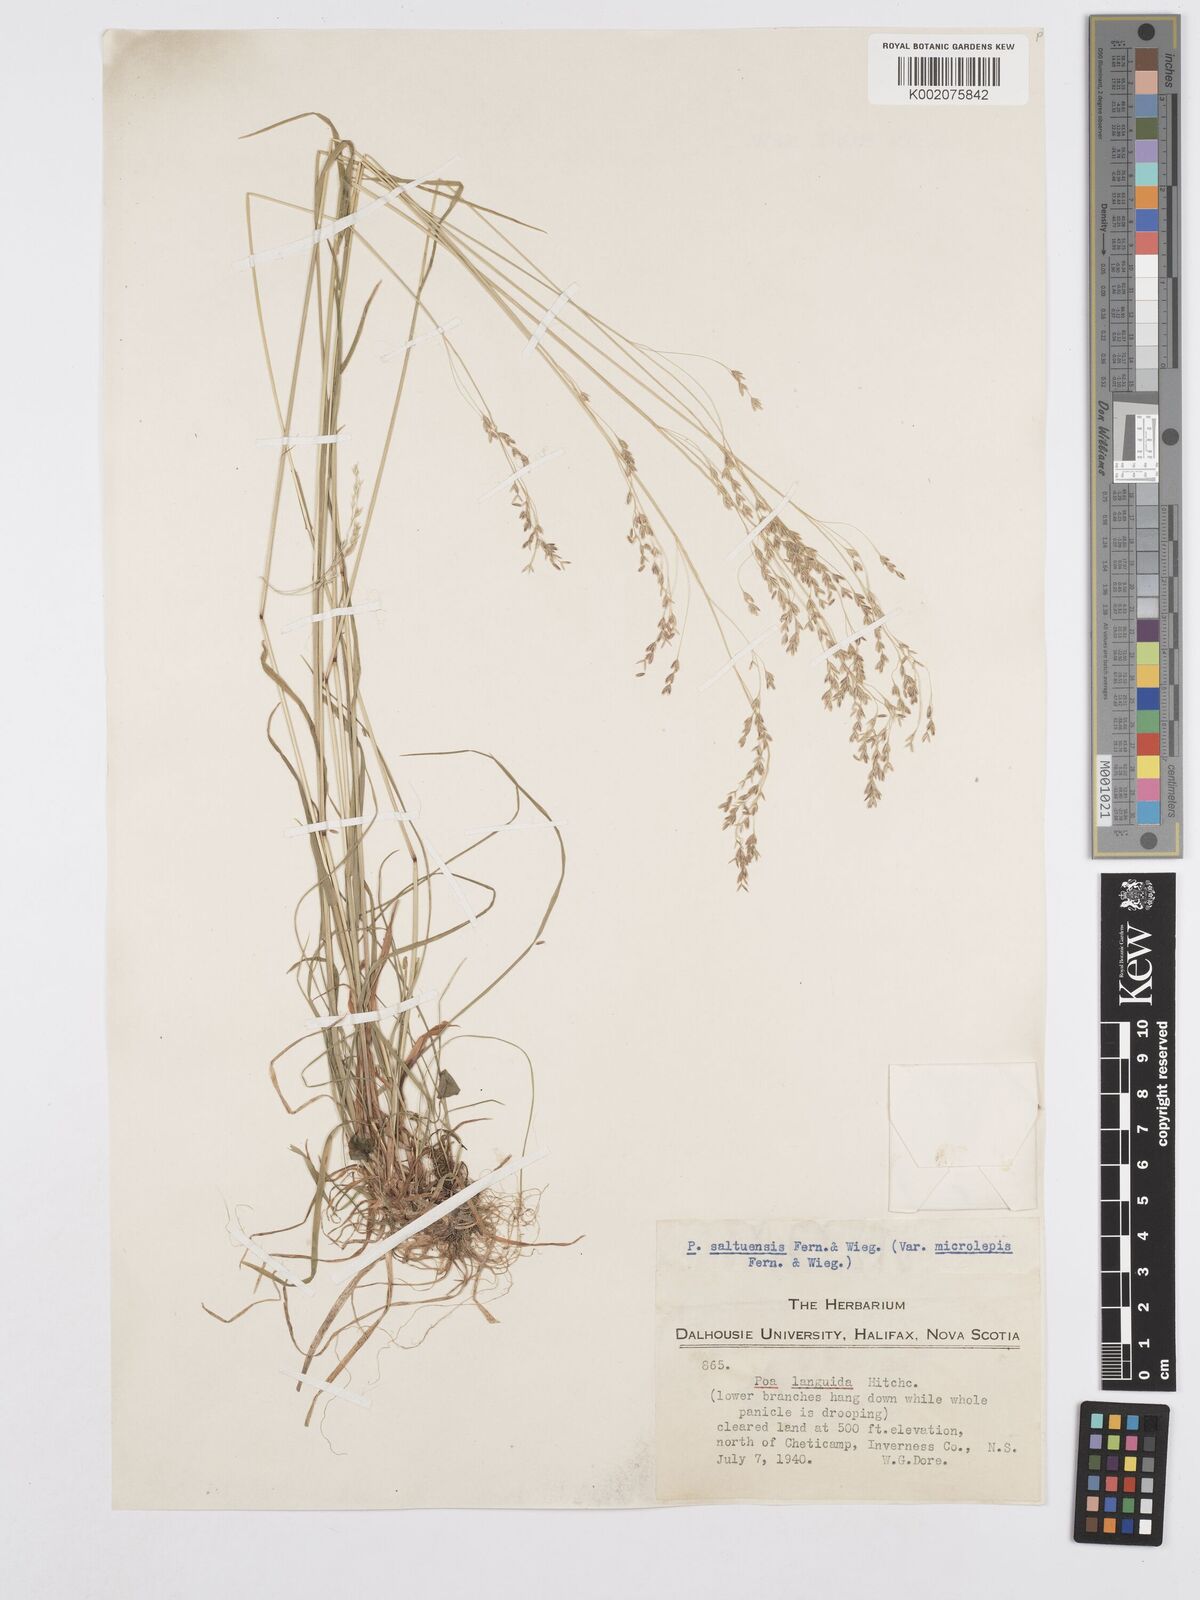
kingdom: Plantae
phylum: Tracheophyta
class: Liliopsida
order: Poales
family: Poaceae
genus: Poa
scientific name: Poa saltuensis
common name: Bushy pasture speargrass
